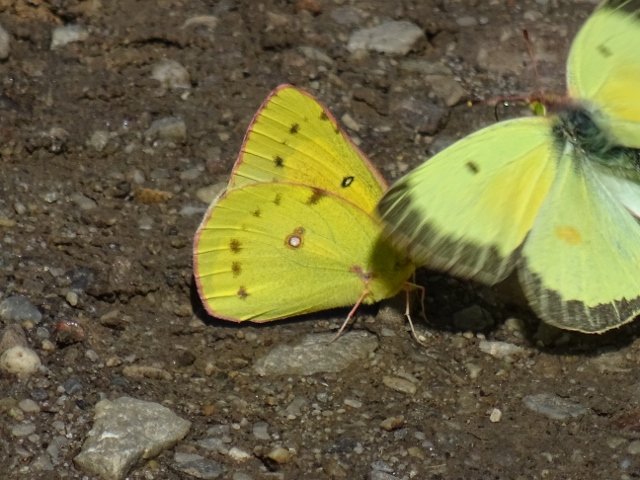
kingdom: Animalia
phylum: Arthropoda
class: Insecta
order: Lepidoptera
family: Pieridae
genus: Colias
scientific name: Colias eurytheme
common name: Orange Sulphur
